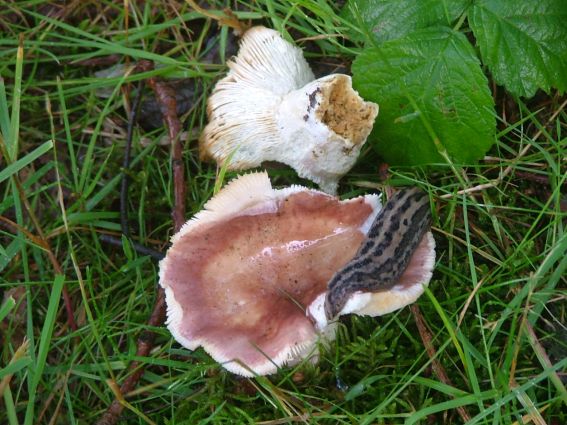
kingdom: Fungi
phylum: Basidiomycota
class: Agaricomycetes
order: Russulales
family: Russulaceae
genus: Russula
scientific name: Russula vesca
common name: spiselig skørhat
